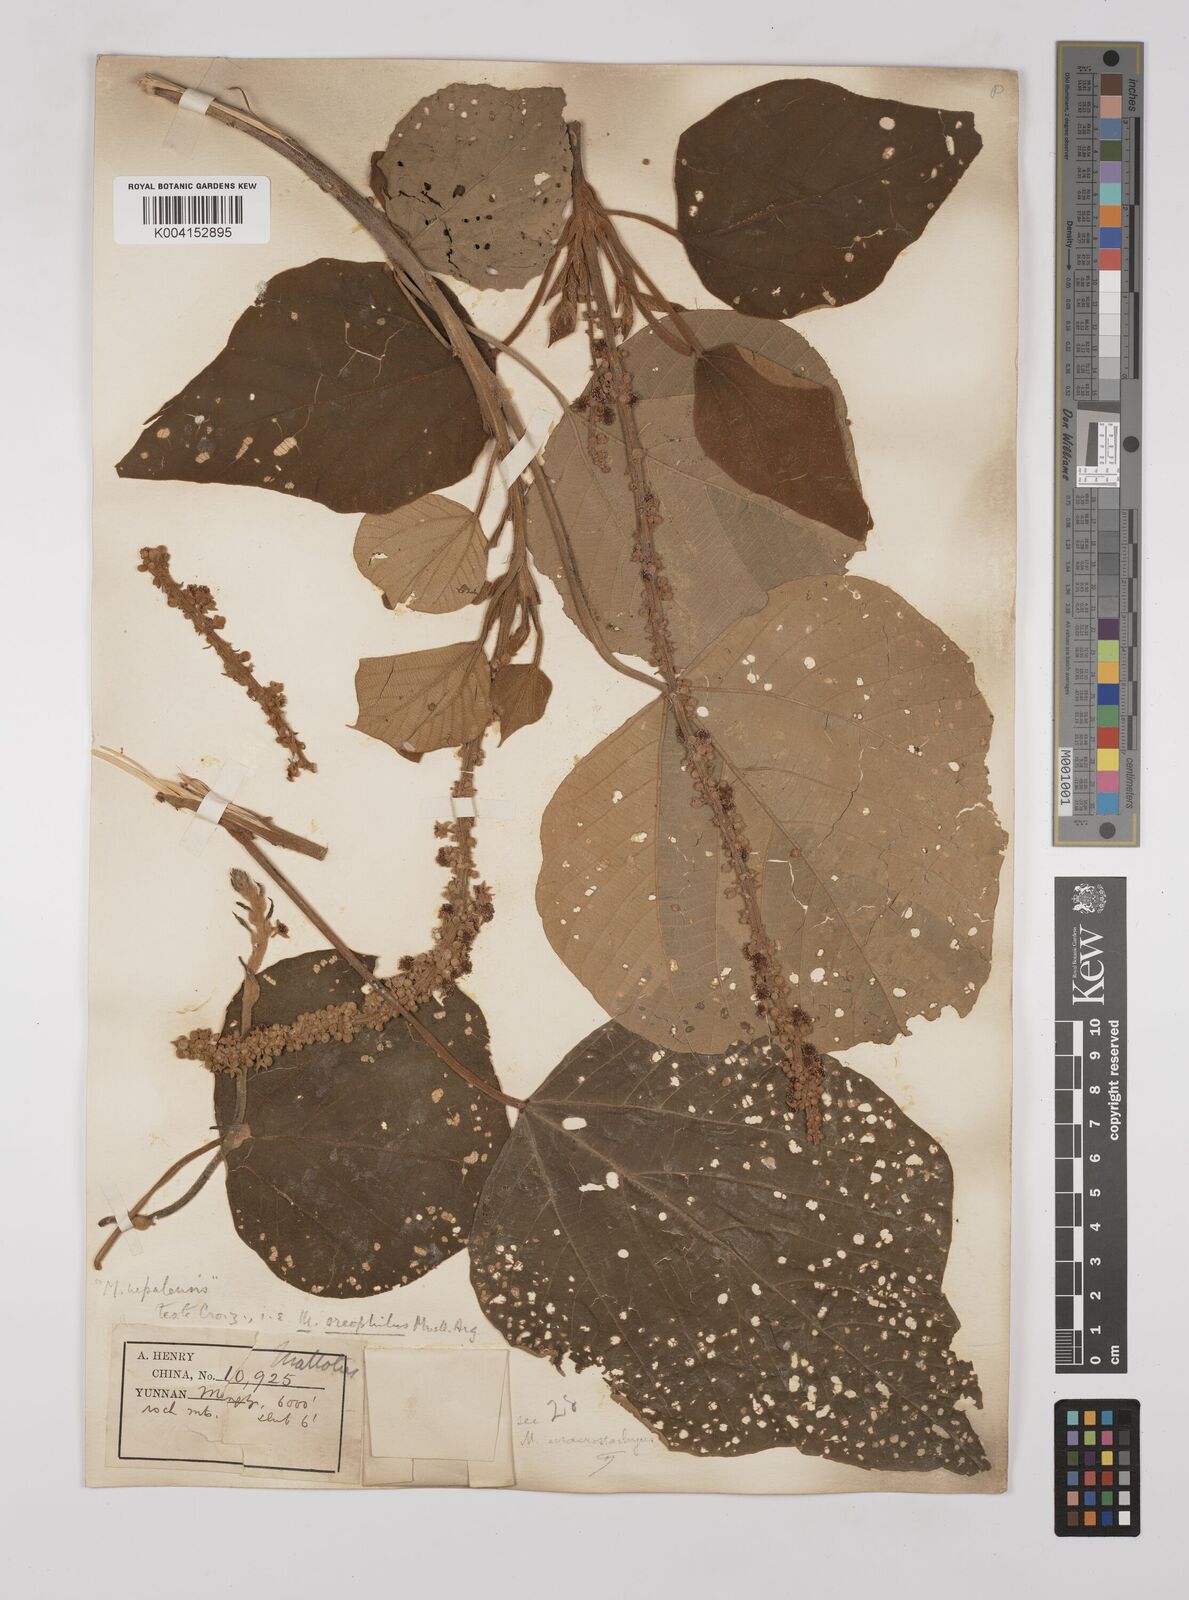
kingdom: Plantae
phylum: Tracheophyta
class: Magnoliopsida
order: Malpighiales
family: Euphorbiaceae
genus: Mallotus
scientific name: Mallotus oreophilus
